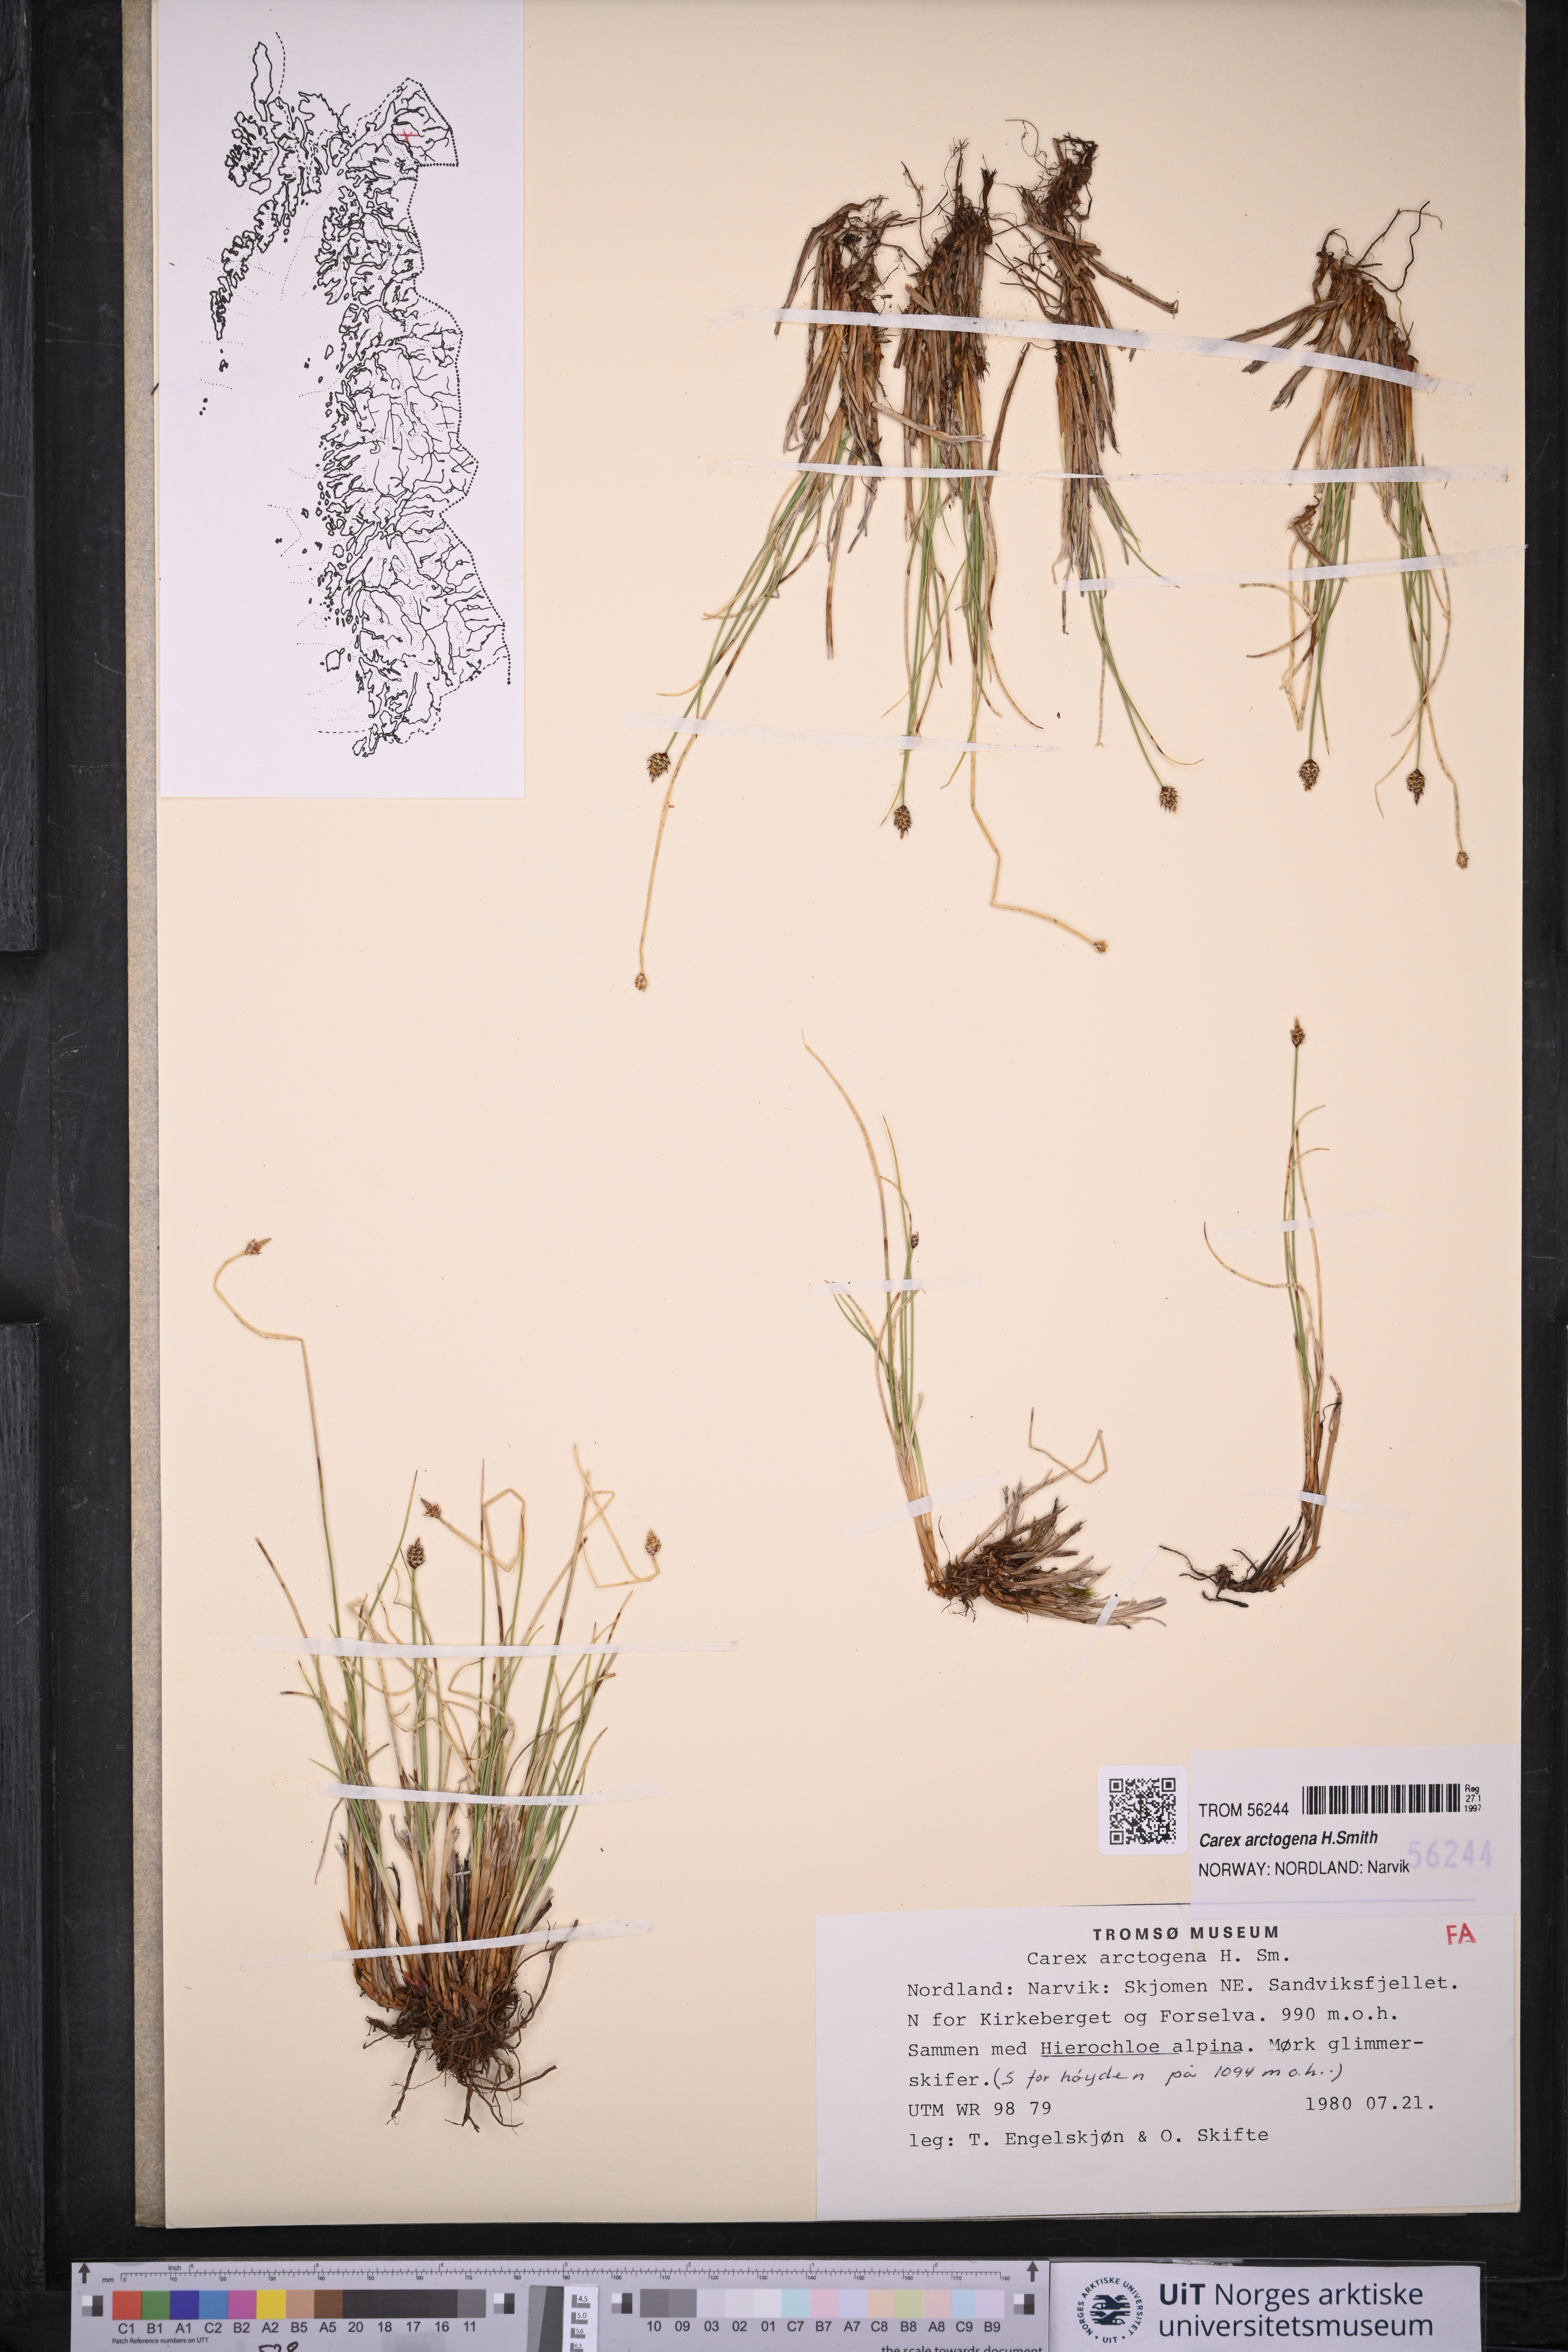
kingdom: Plantae
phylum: Tracheophyta
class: Liliopsida
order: Poales
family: Cyperaceae
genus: Carex
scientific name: Carex arctogena
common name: Black sedge
